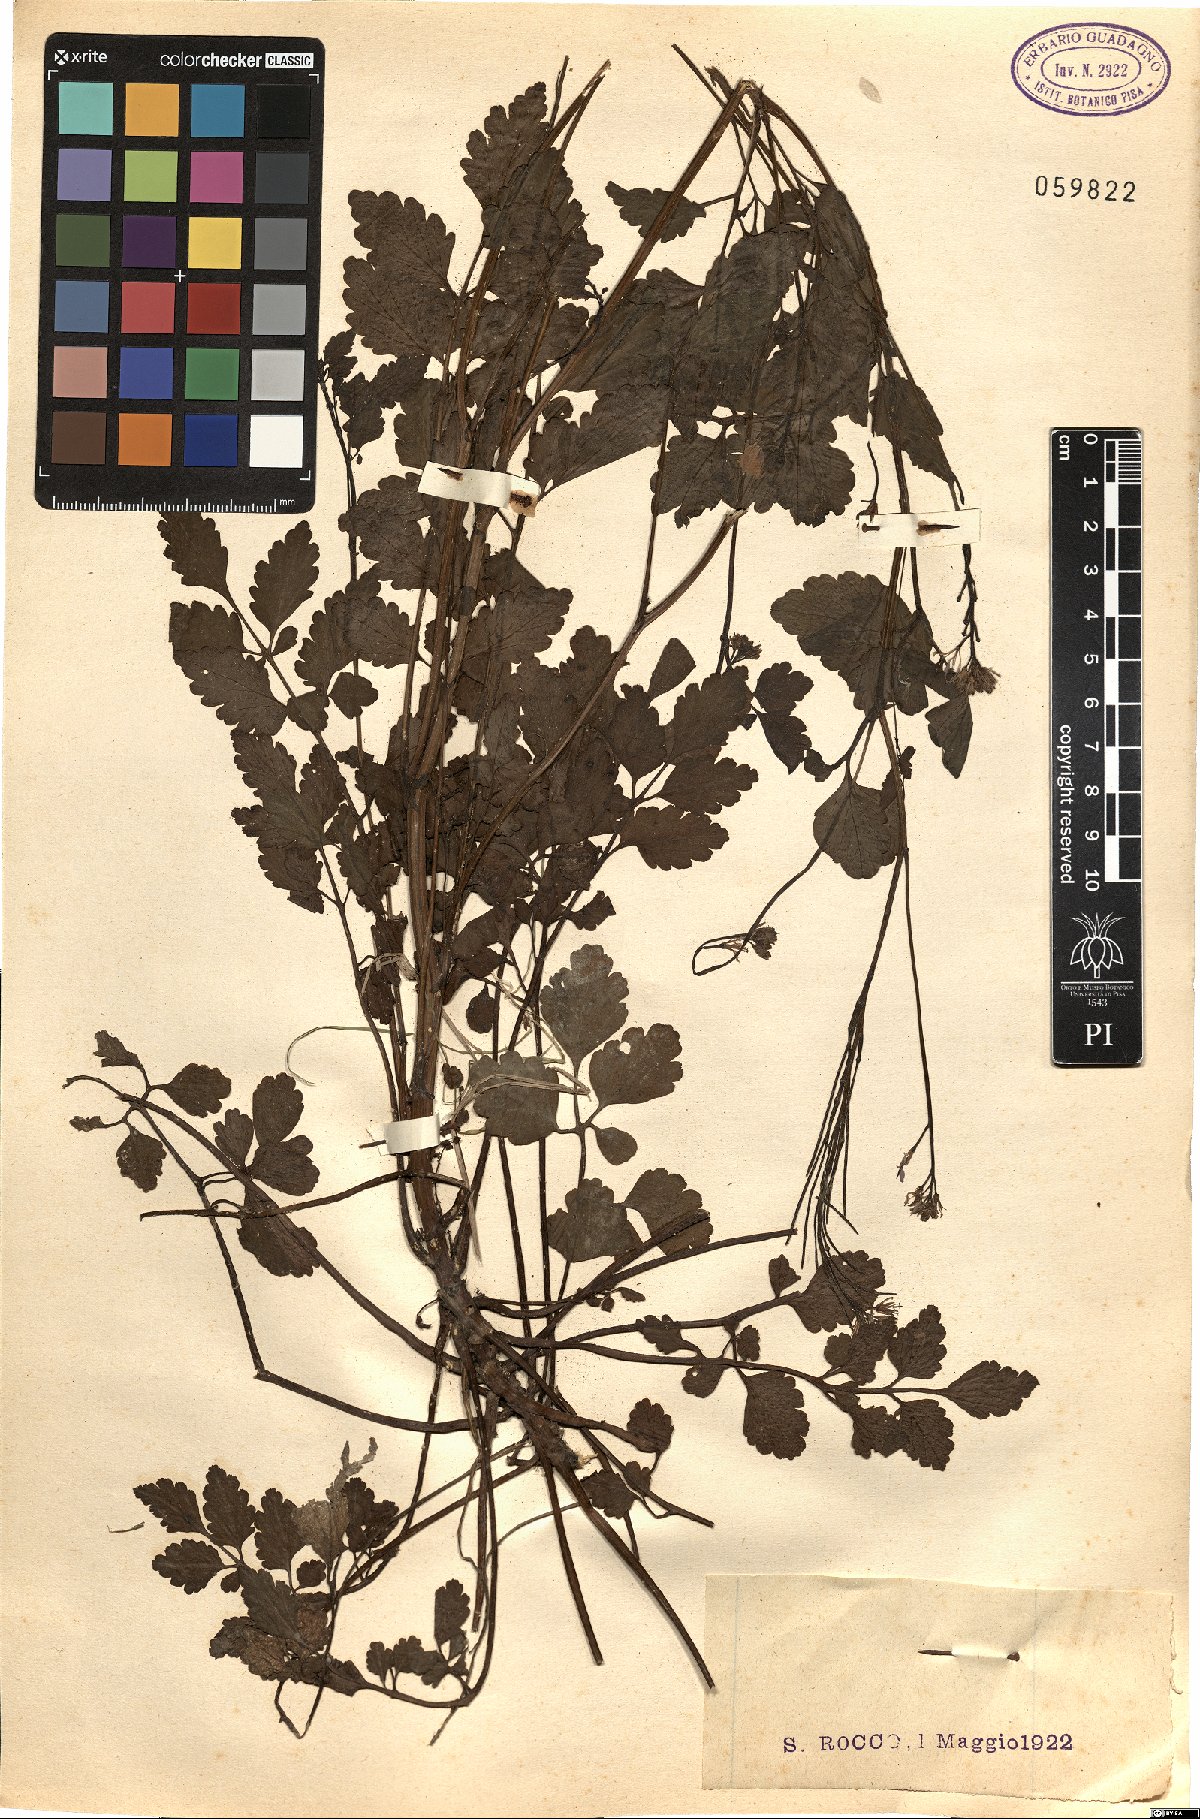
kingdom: Plantae
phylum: Tracheophyta
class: Magnoliopsida
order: Brassicales
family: Brassicaceae
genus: Cardamine
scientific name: Cardamine chelidonia
